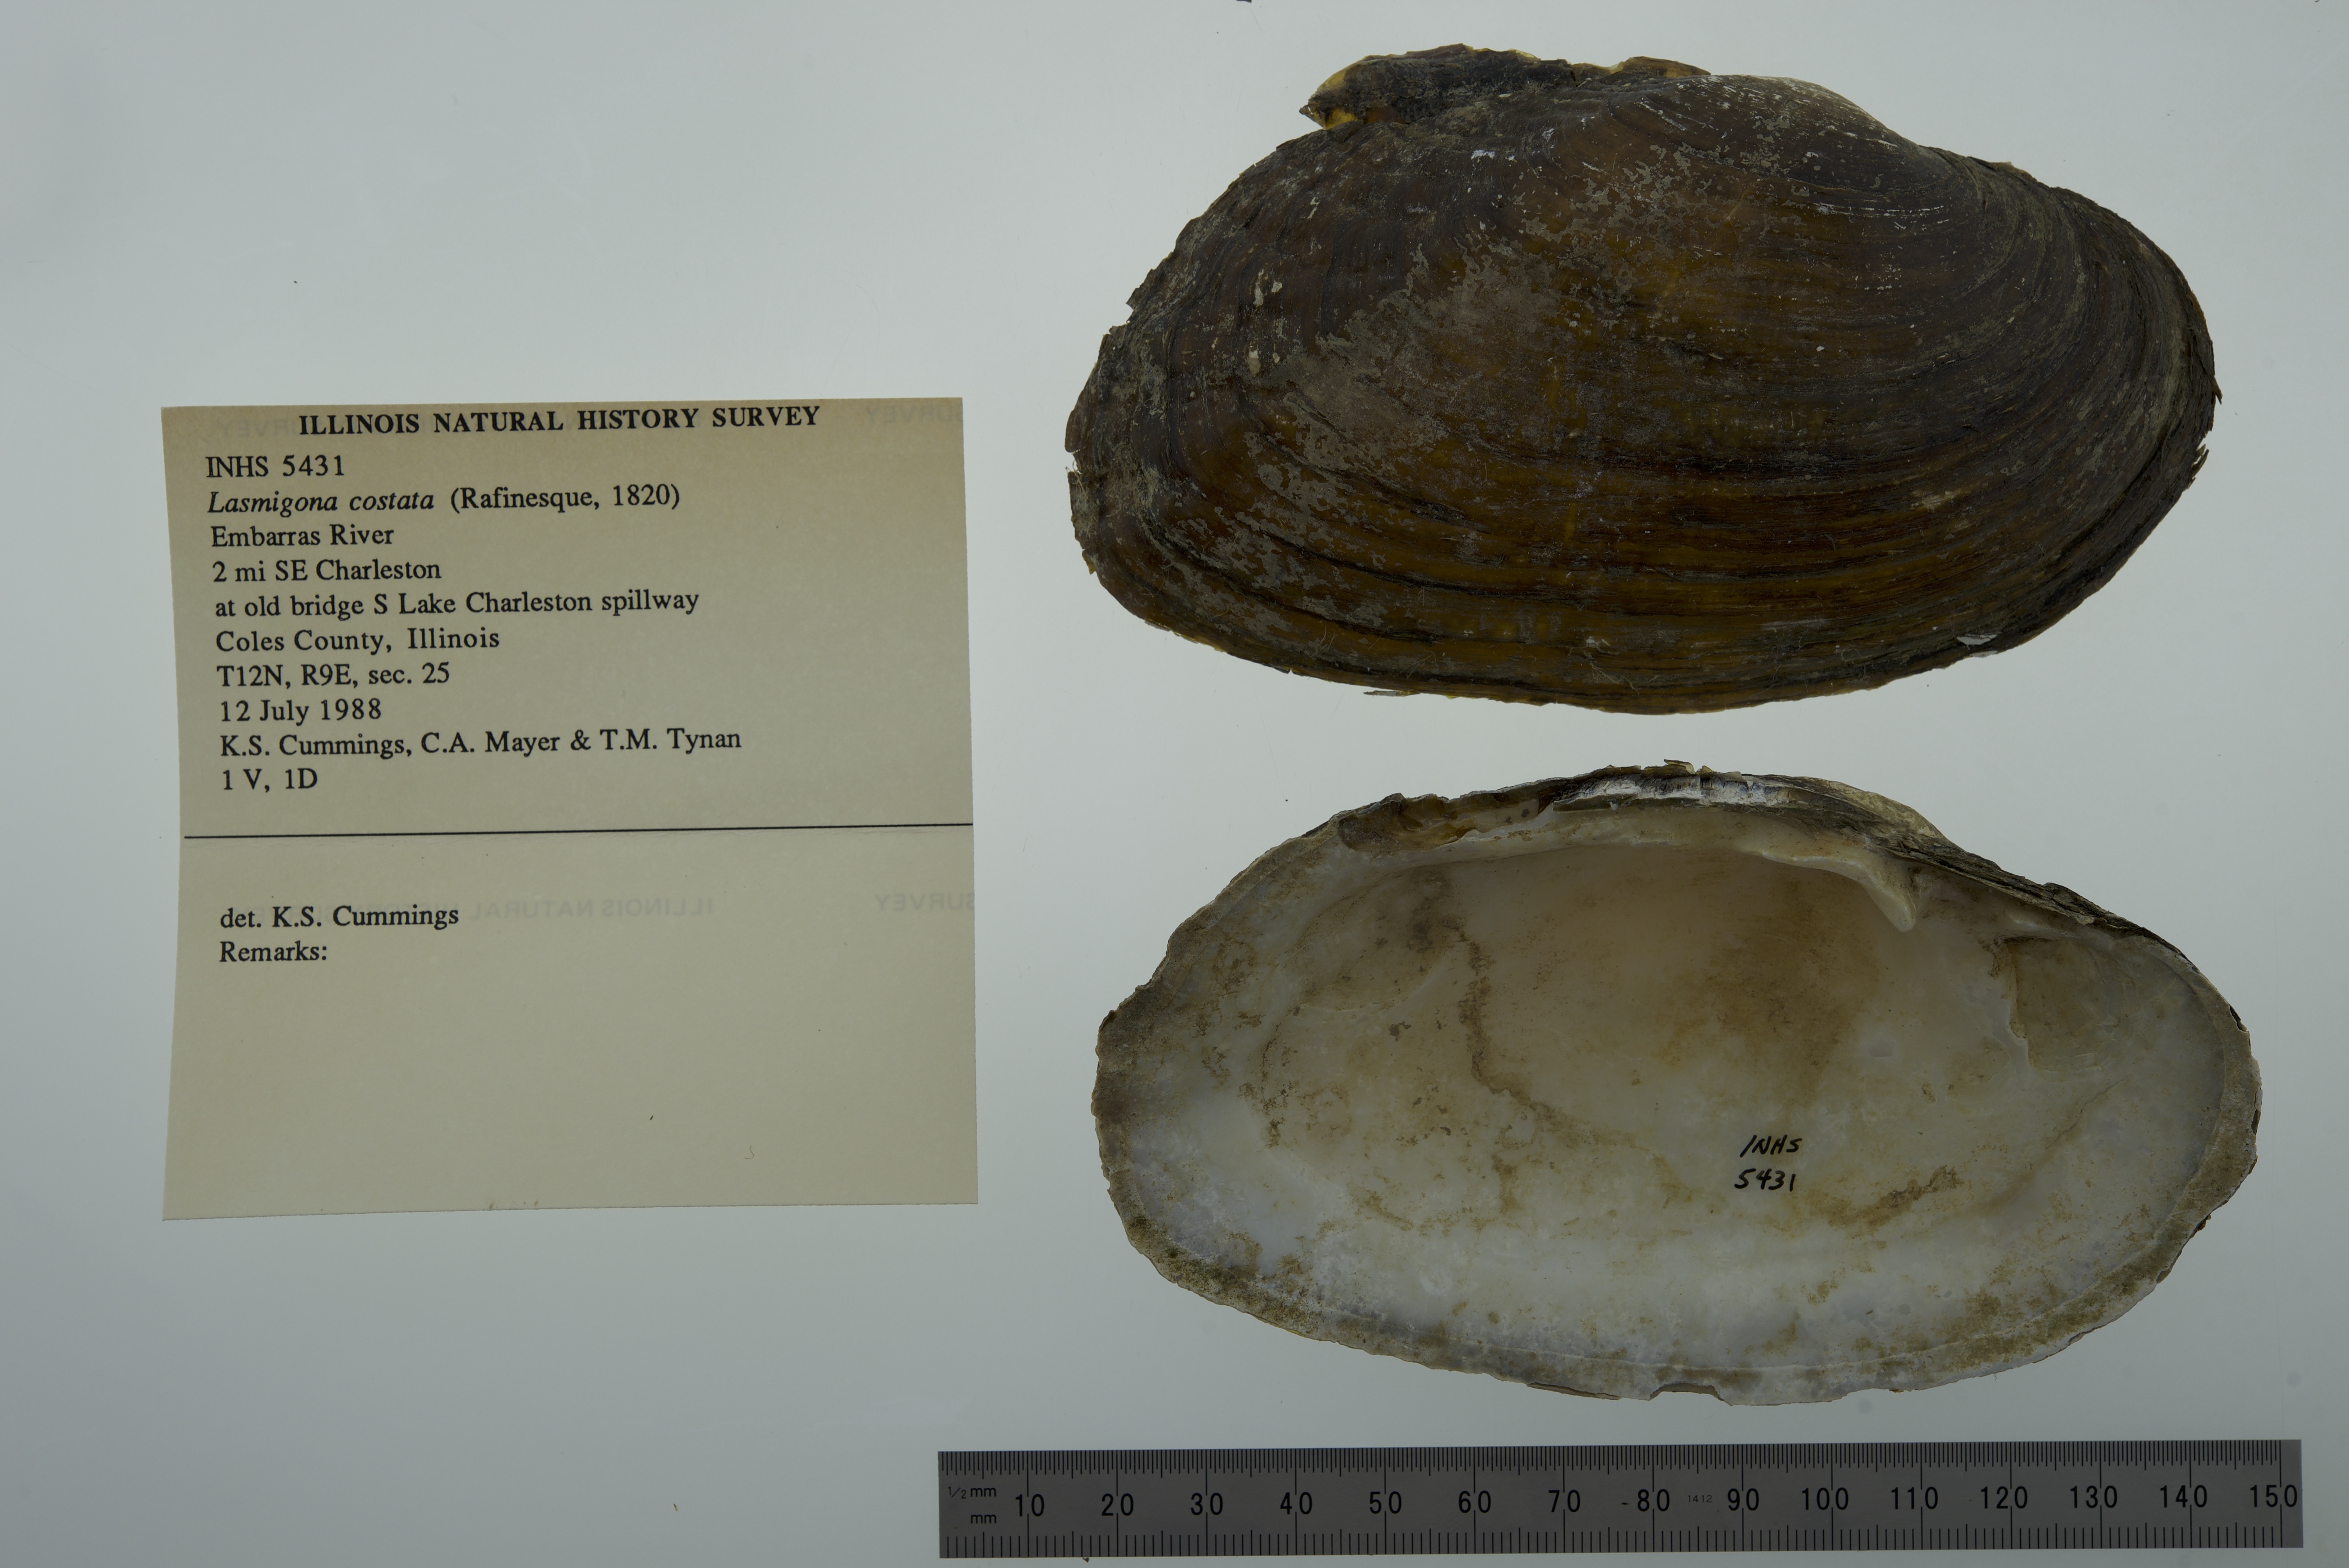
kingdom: Animalia
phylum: Mollusca
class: Bivalvia
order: Unionida
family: Unionidae
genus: Lasmigona
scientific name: Lasmigona costata
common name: Flutedshell
